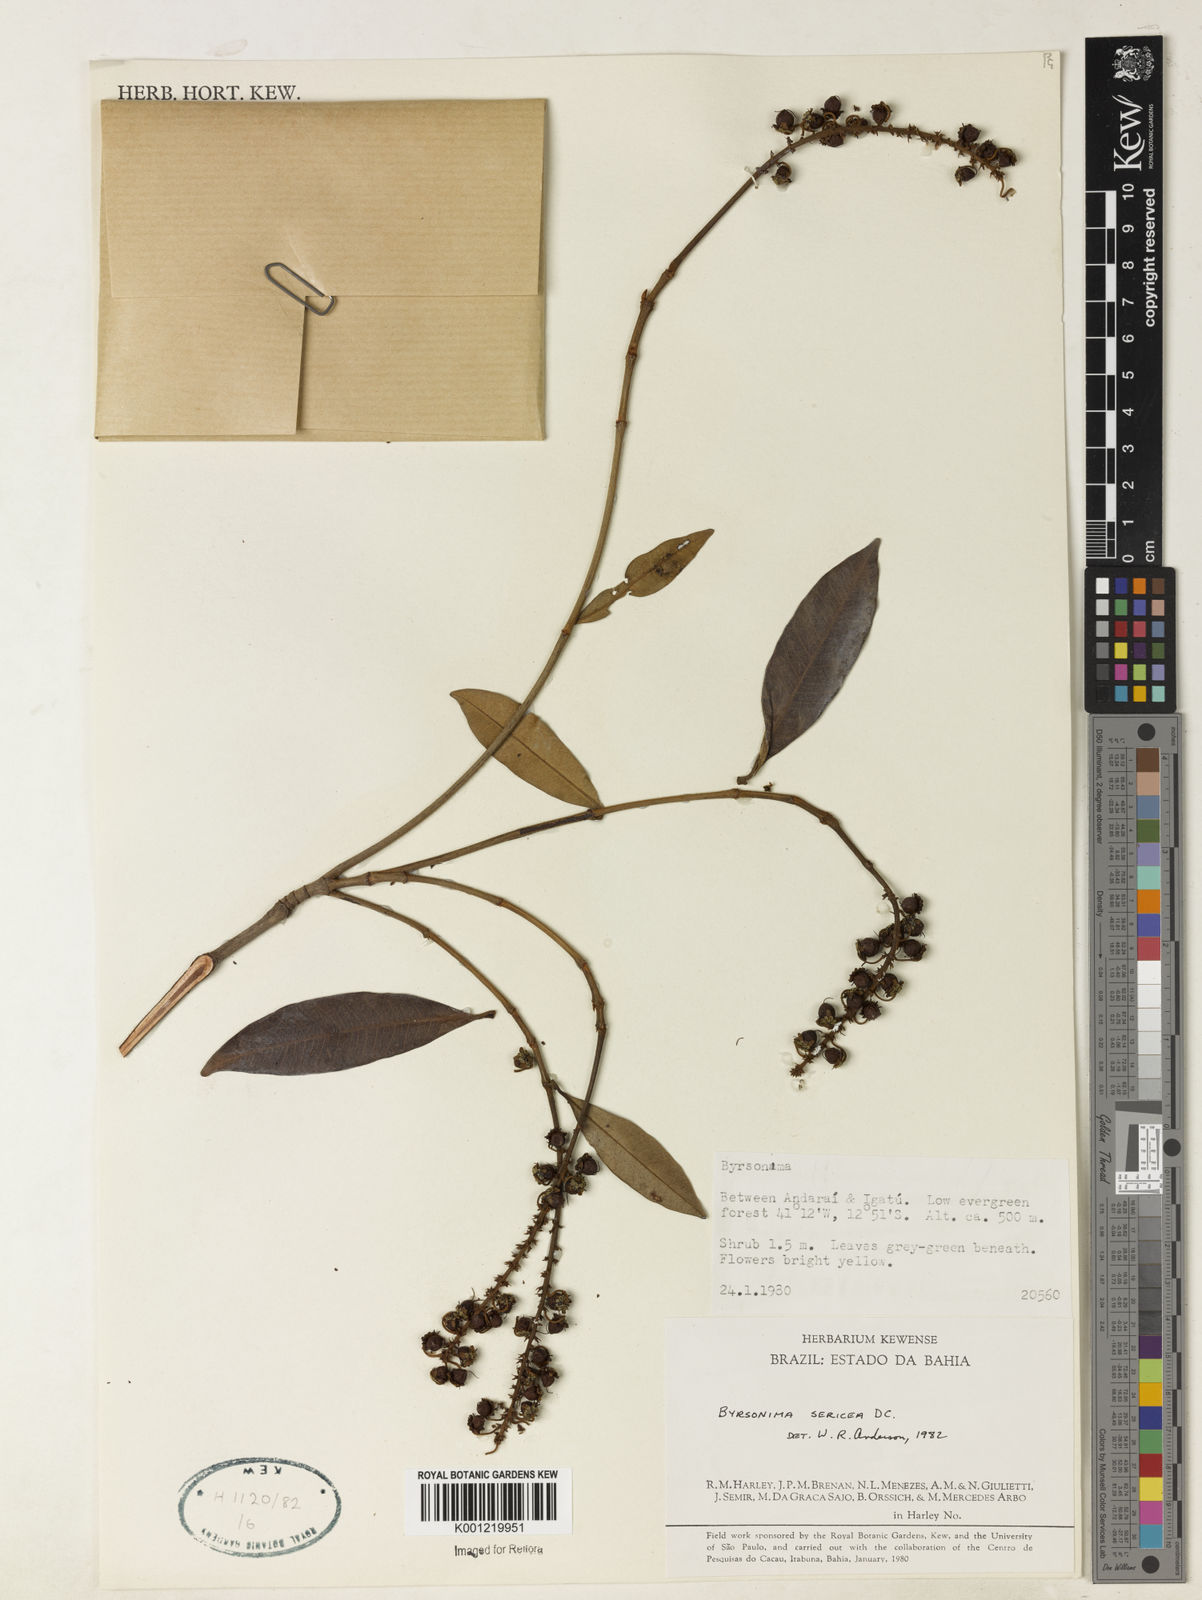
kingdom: Plantae
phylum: Tracheophyta
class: Magnoliopsida
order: Malpighiales
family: Malpighiaceae
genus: Byrsonima
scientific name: Byrsonima sericea
